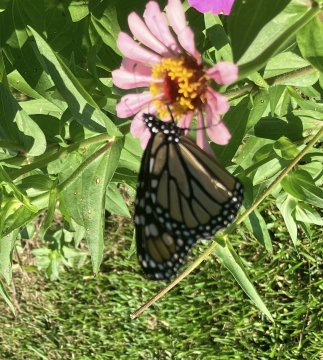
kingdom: Animalia
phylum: Arthropoda
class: Insecta
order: Lepidoptera
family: Nymphalidae
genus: Danaus
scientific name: Danaus plexippus
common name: Monarch
